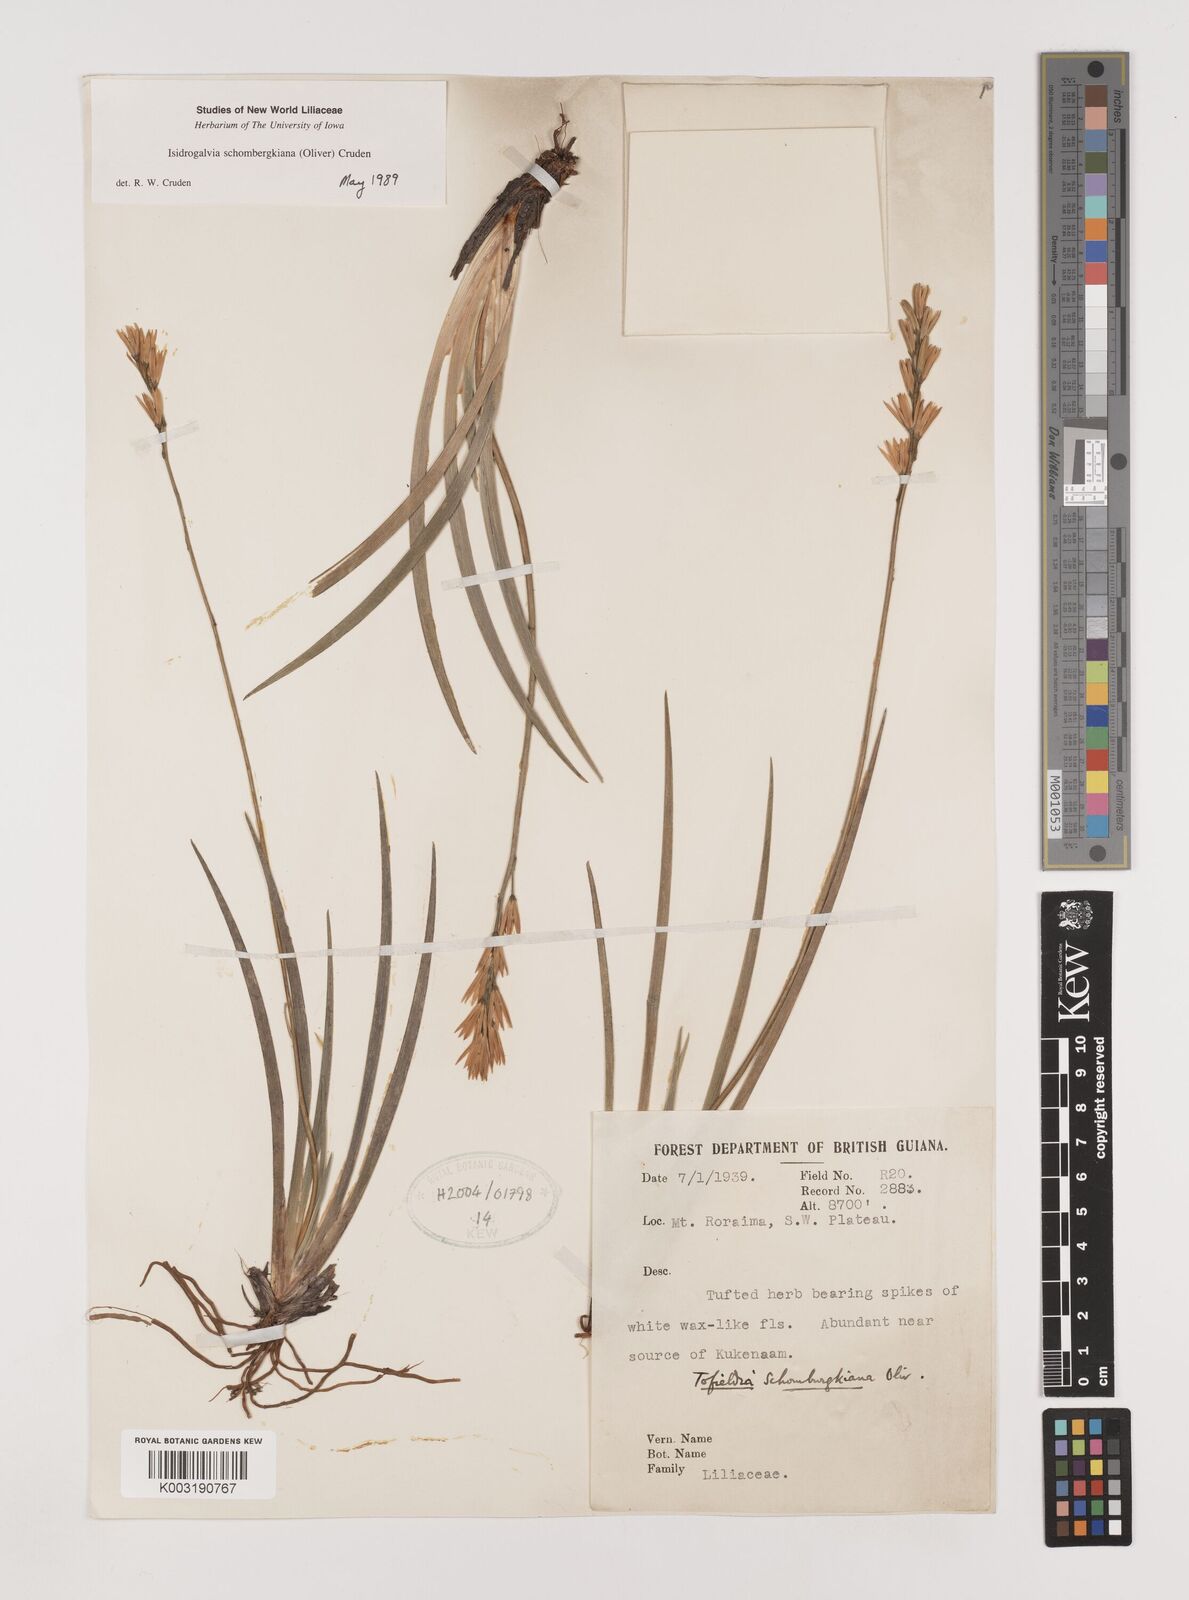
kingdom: Plantae
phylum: Tracheophyta
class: Liliopsida
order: Alismatales
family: Tofieldiaceae
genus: Harperocallis
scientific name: Harperocallis schomburgkiana
